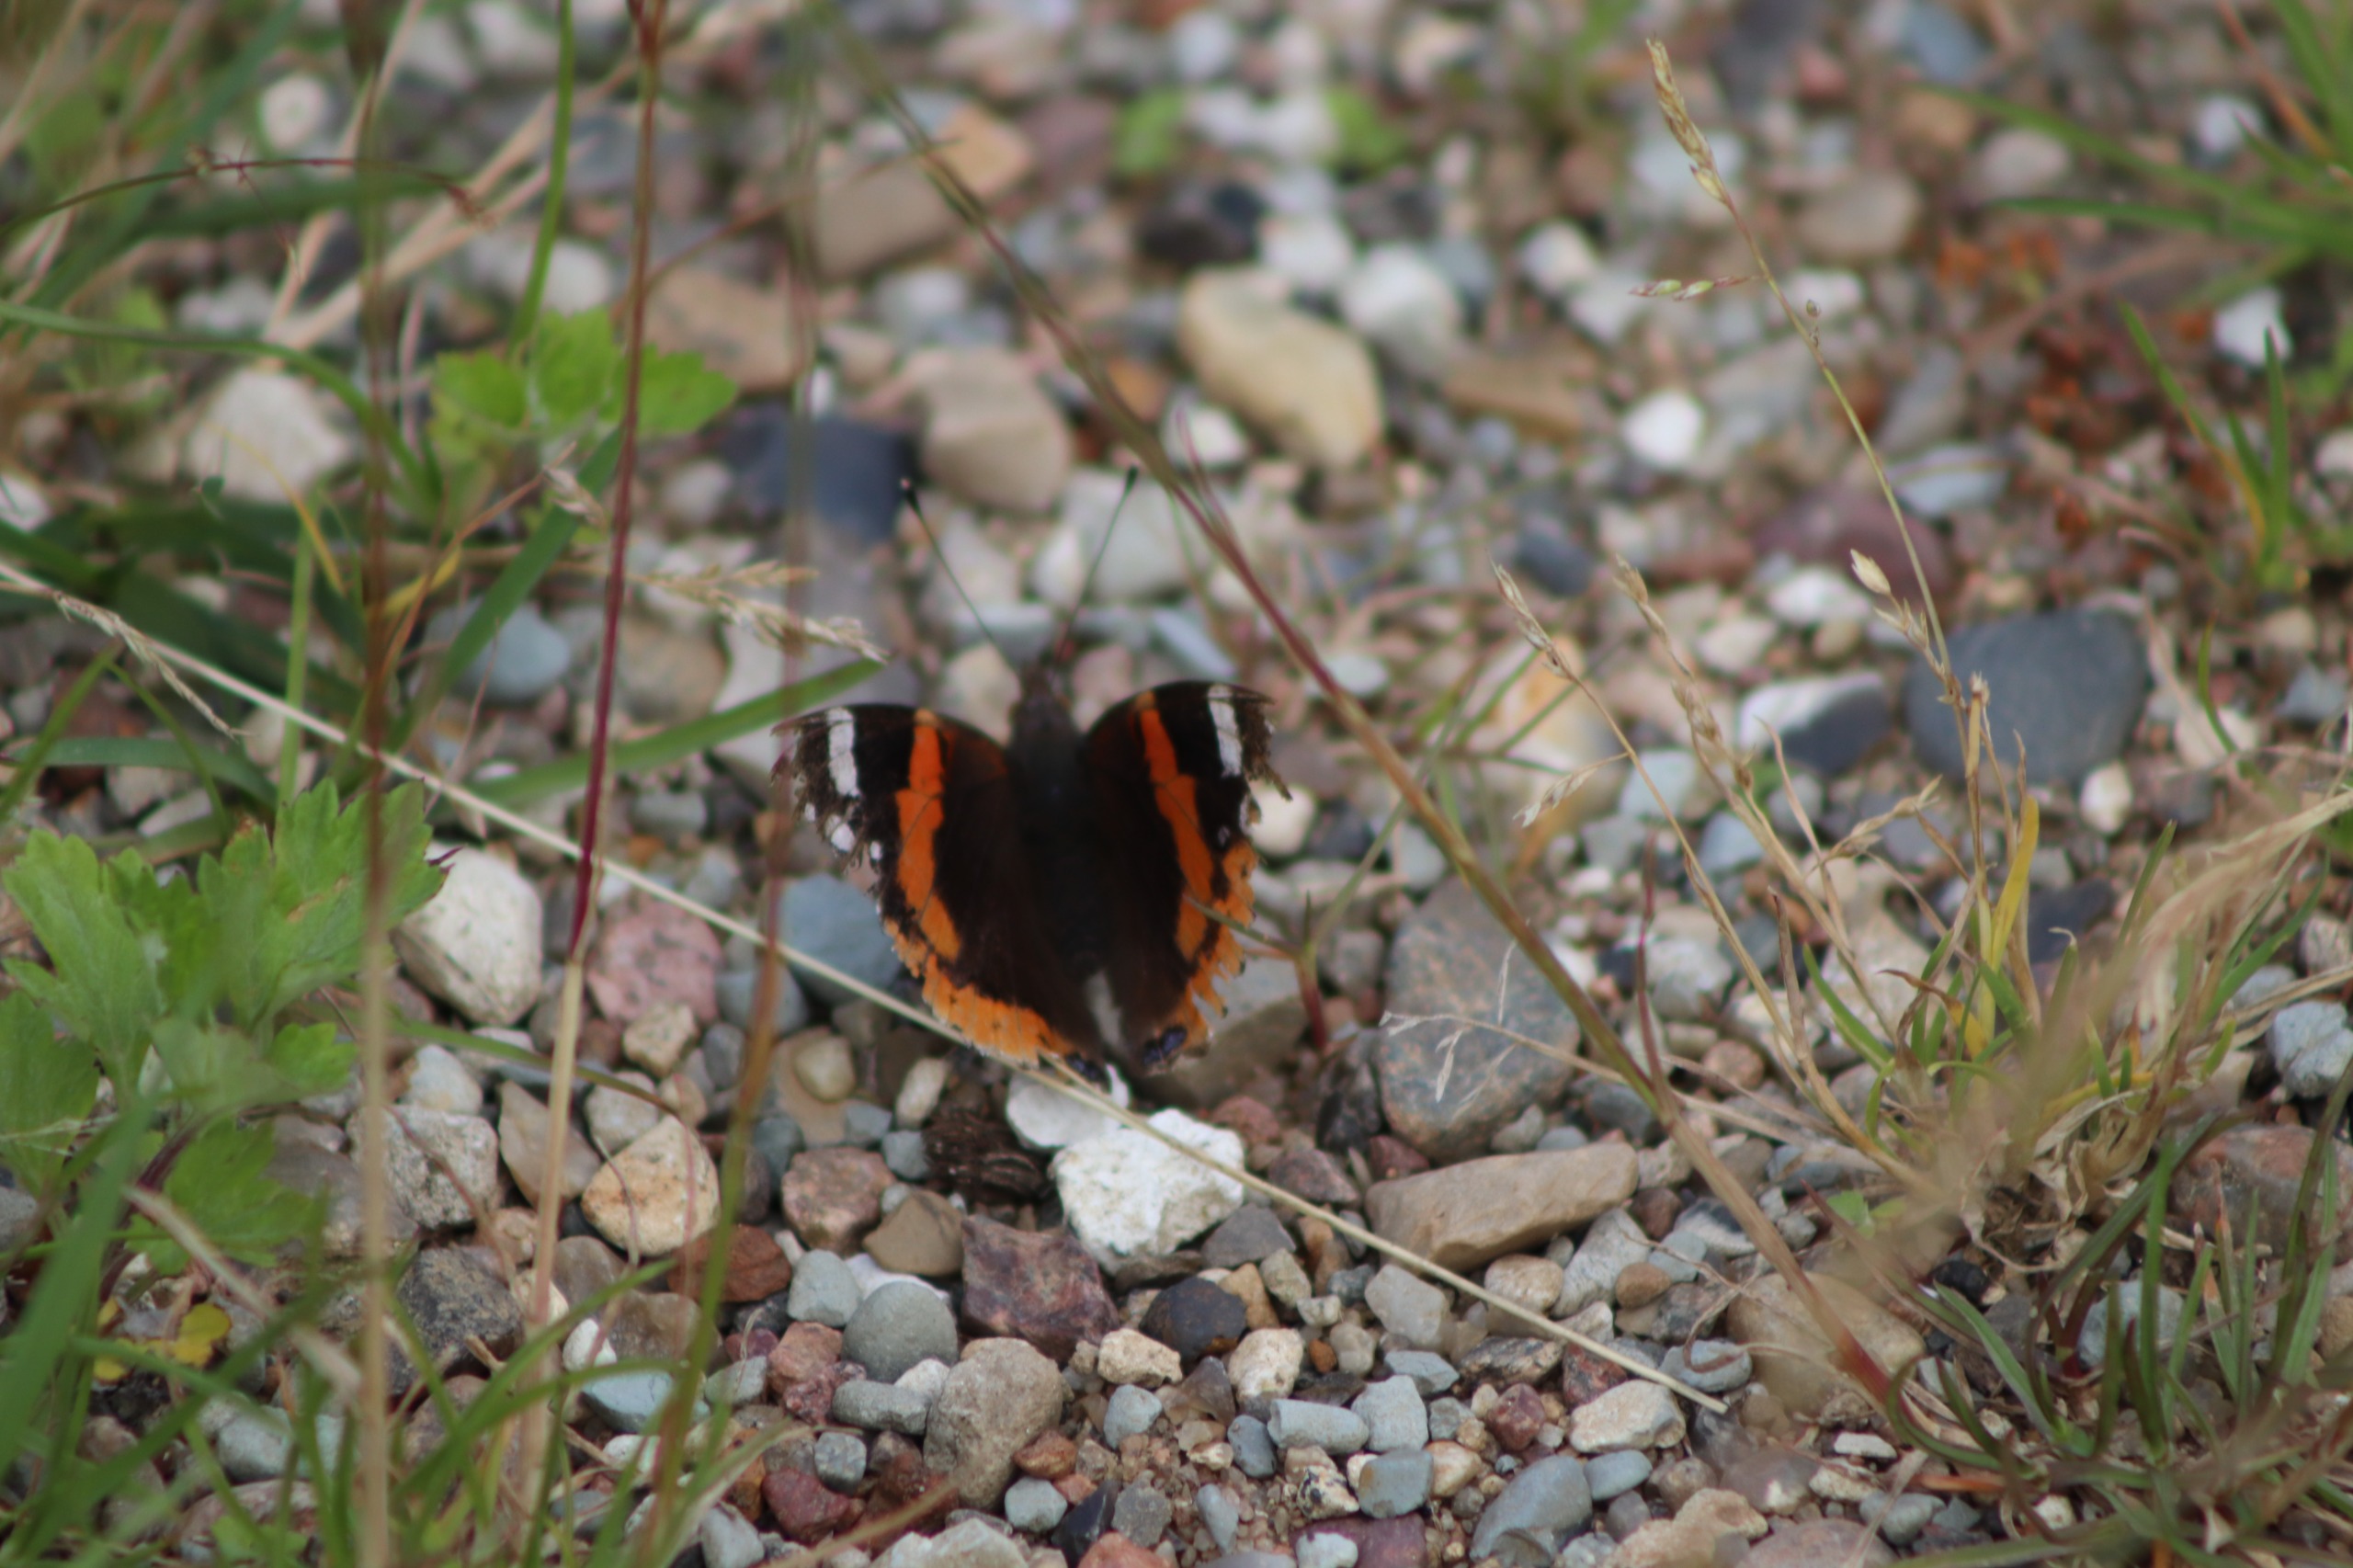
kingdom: Animalia
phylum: Arthropoda
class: Insecta
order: Lepidoptera
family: Nymphalidae
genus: Vanessa
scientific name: Vanessa atalanta
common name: Admiral
